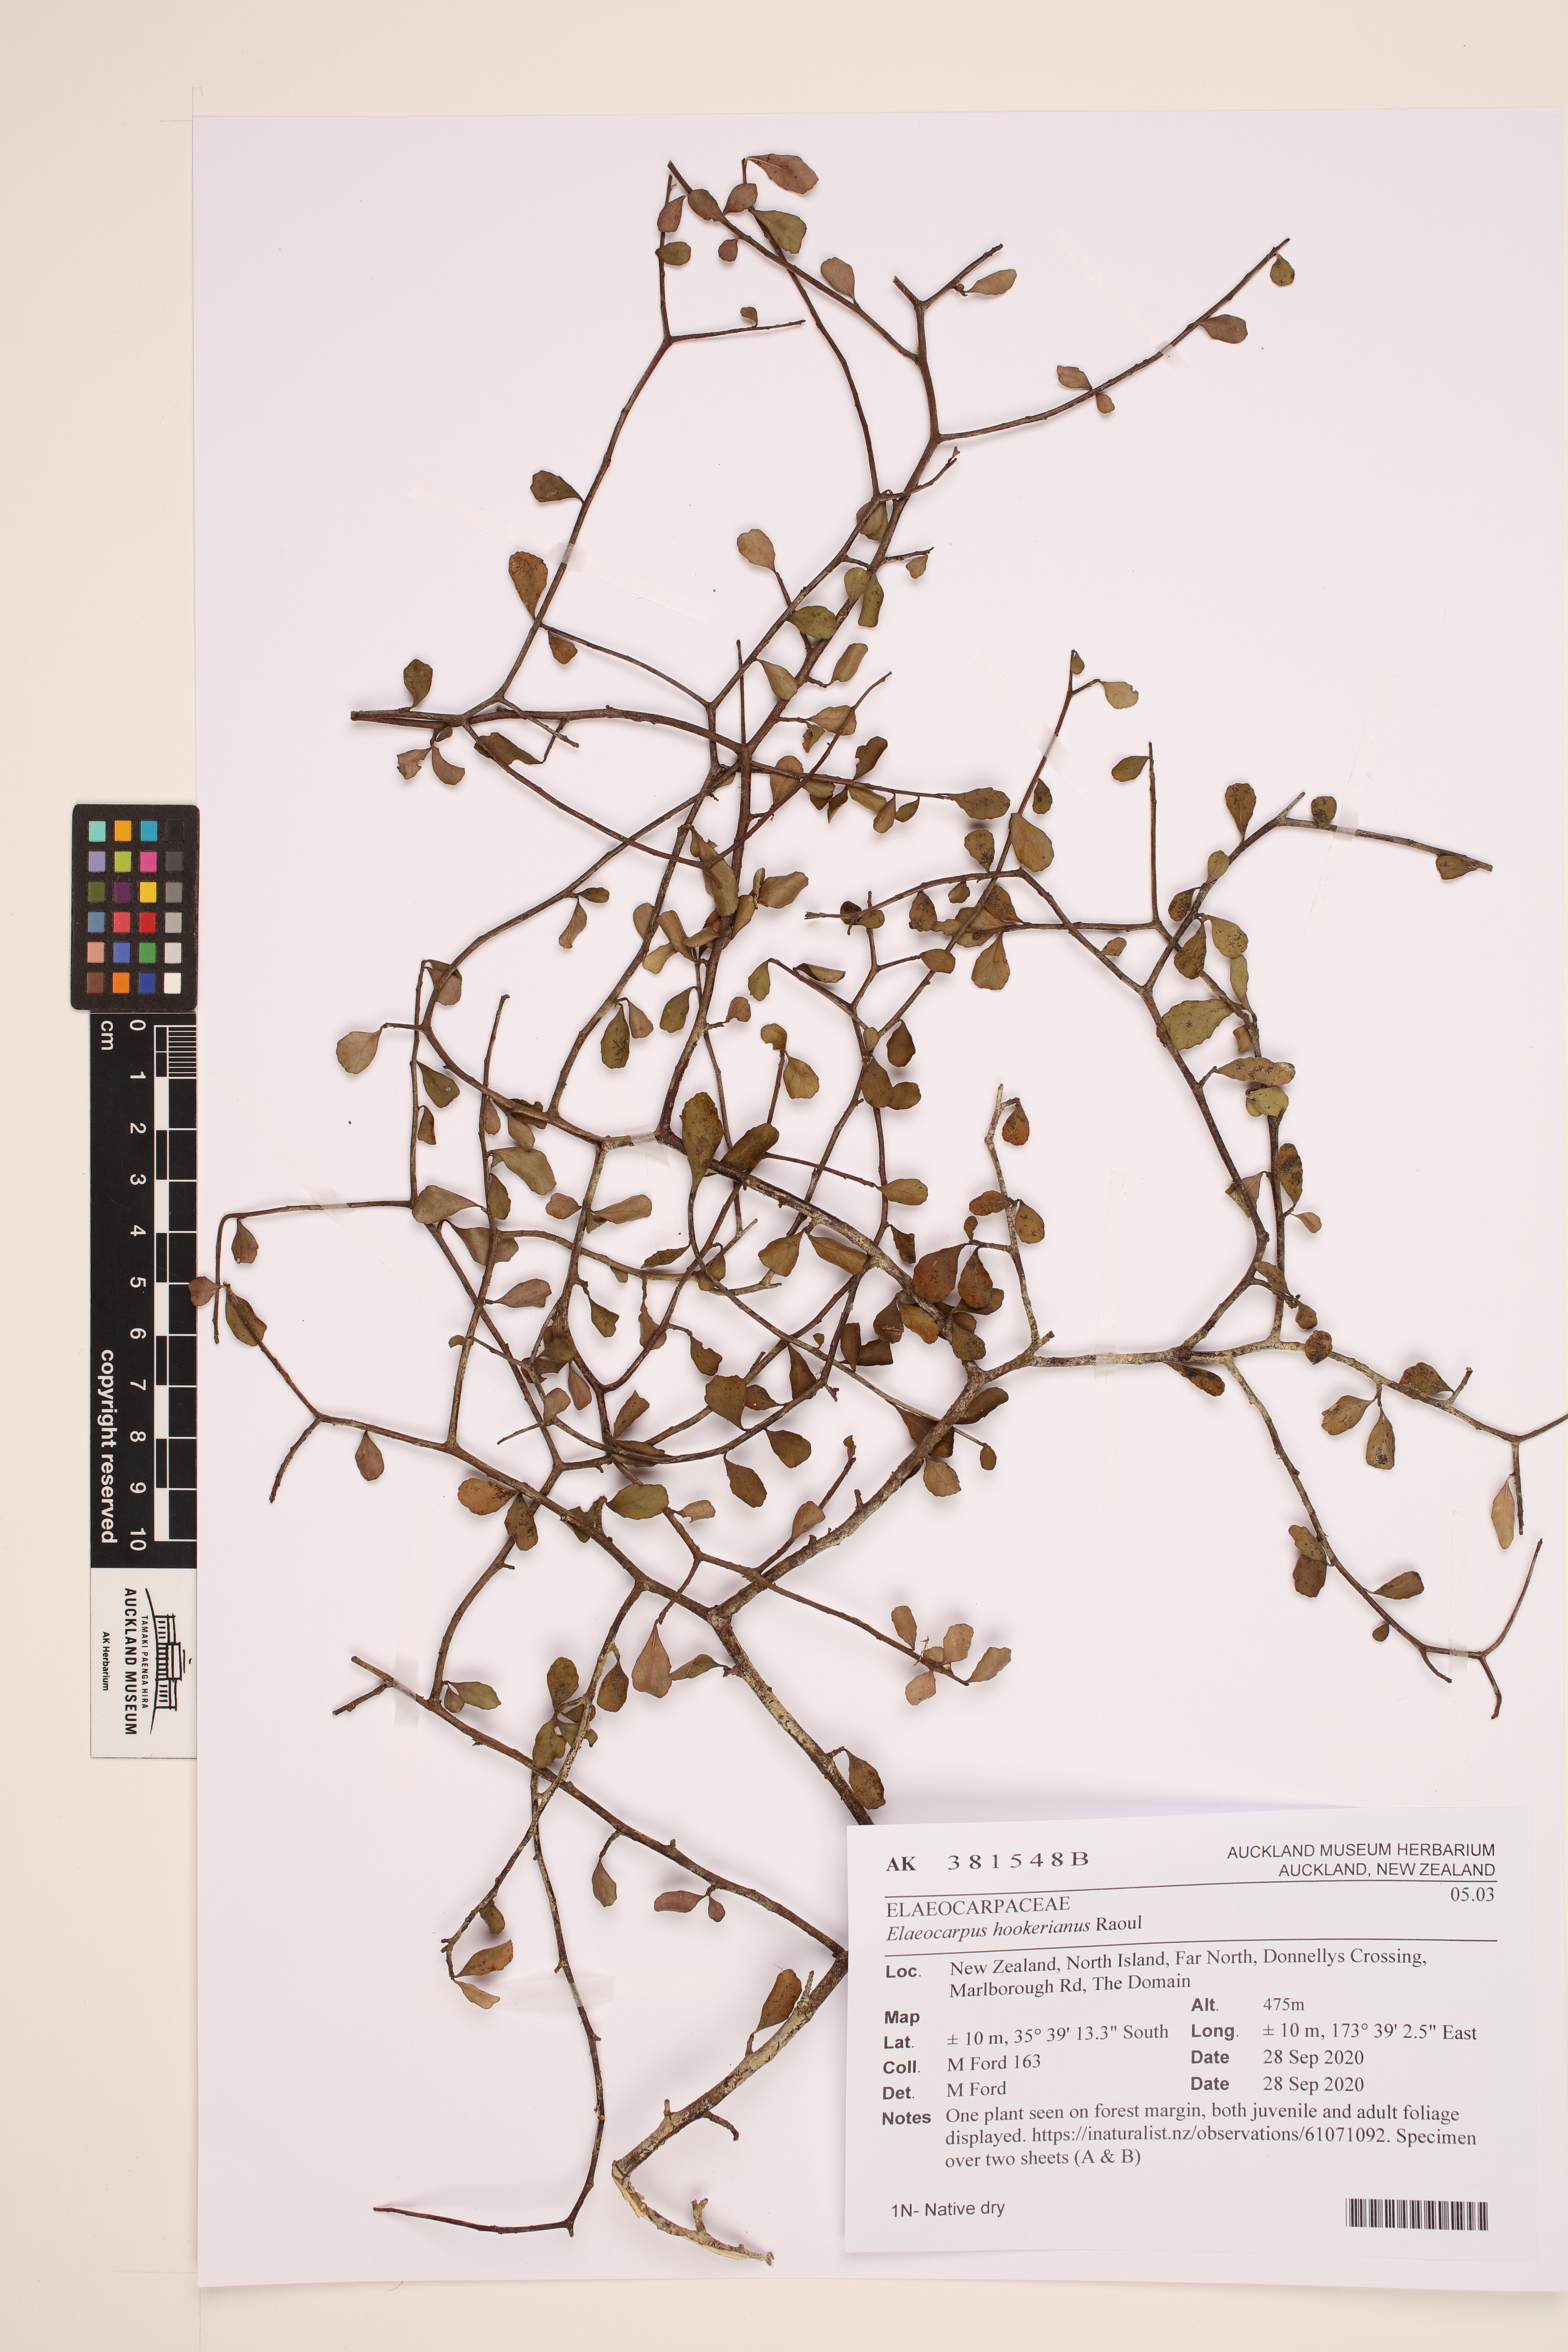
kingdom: Plantae
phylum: Tracheophyta
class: Magnoliopsida
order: Oxalidales
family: Elaeocarpaceae
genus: Elaeocarpus
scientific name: Elaeocarpus hookerianus
